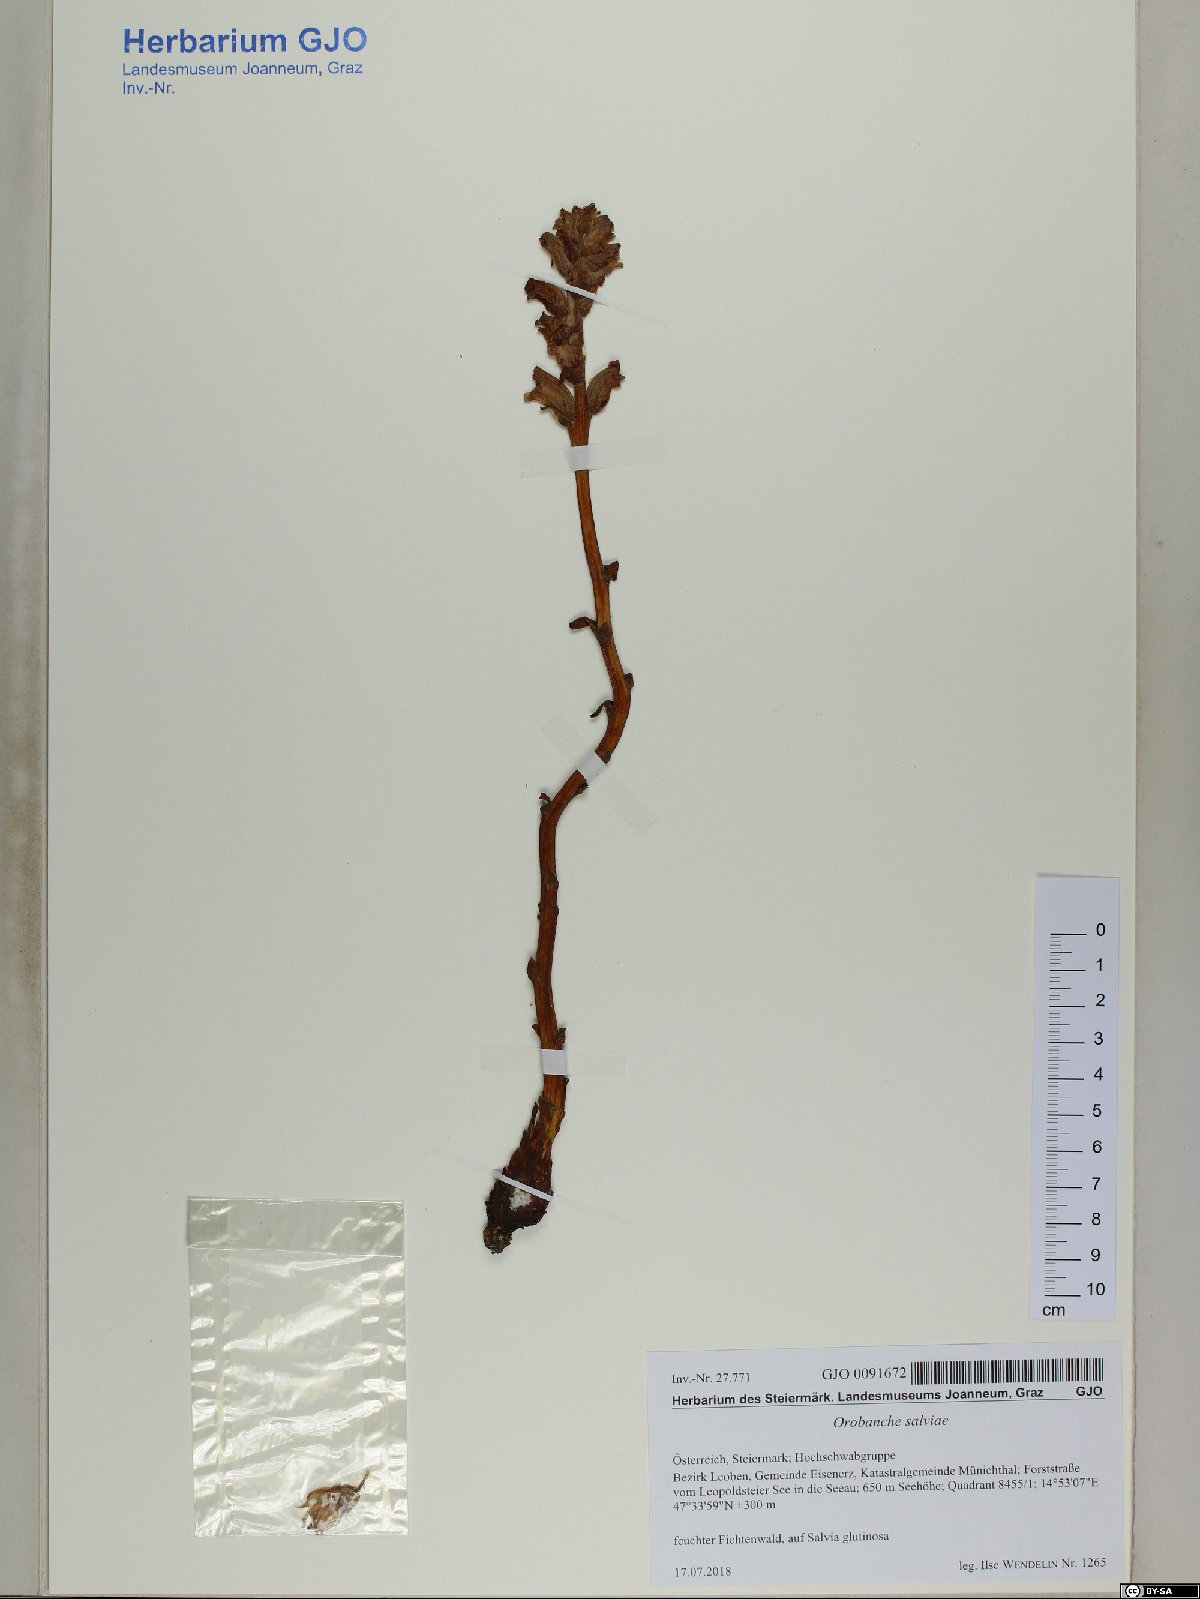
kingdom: Plantae
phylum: Tracheophyta
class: Magnoliopsida
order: Lamiales
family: Orobanchaceae
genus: Orobanche
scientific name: Orobanche salviae
